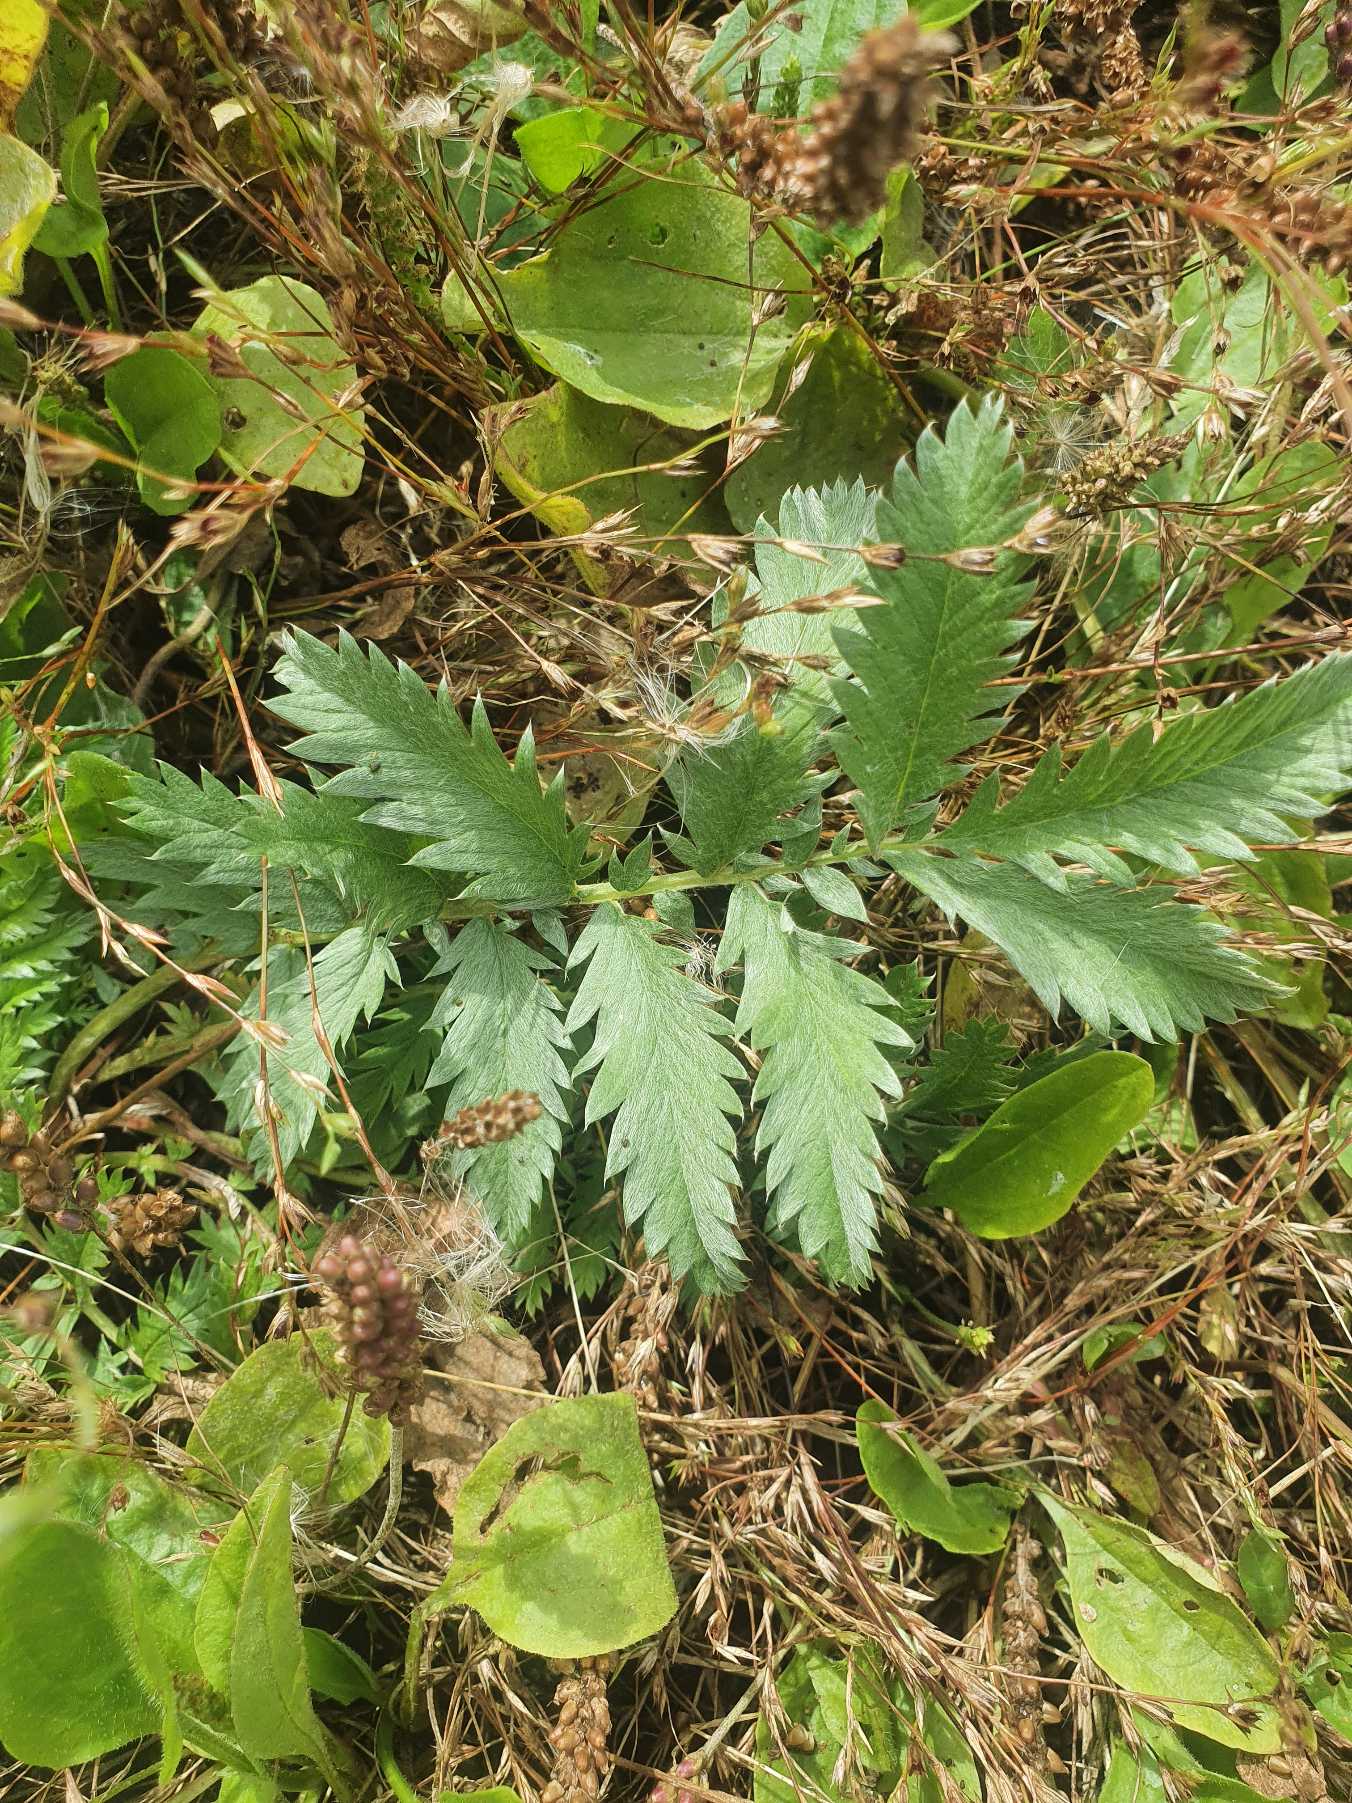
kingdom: Plantae
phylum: Tracheophyta
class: Magnoliopsida
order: Rosales
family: Rosaceae
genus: Argentina
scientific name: Argentina anserina
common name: Gåsepotentil
